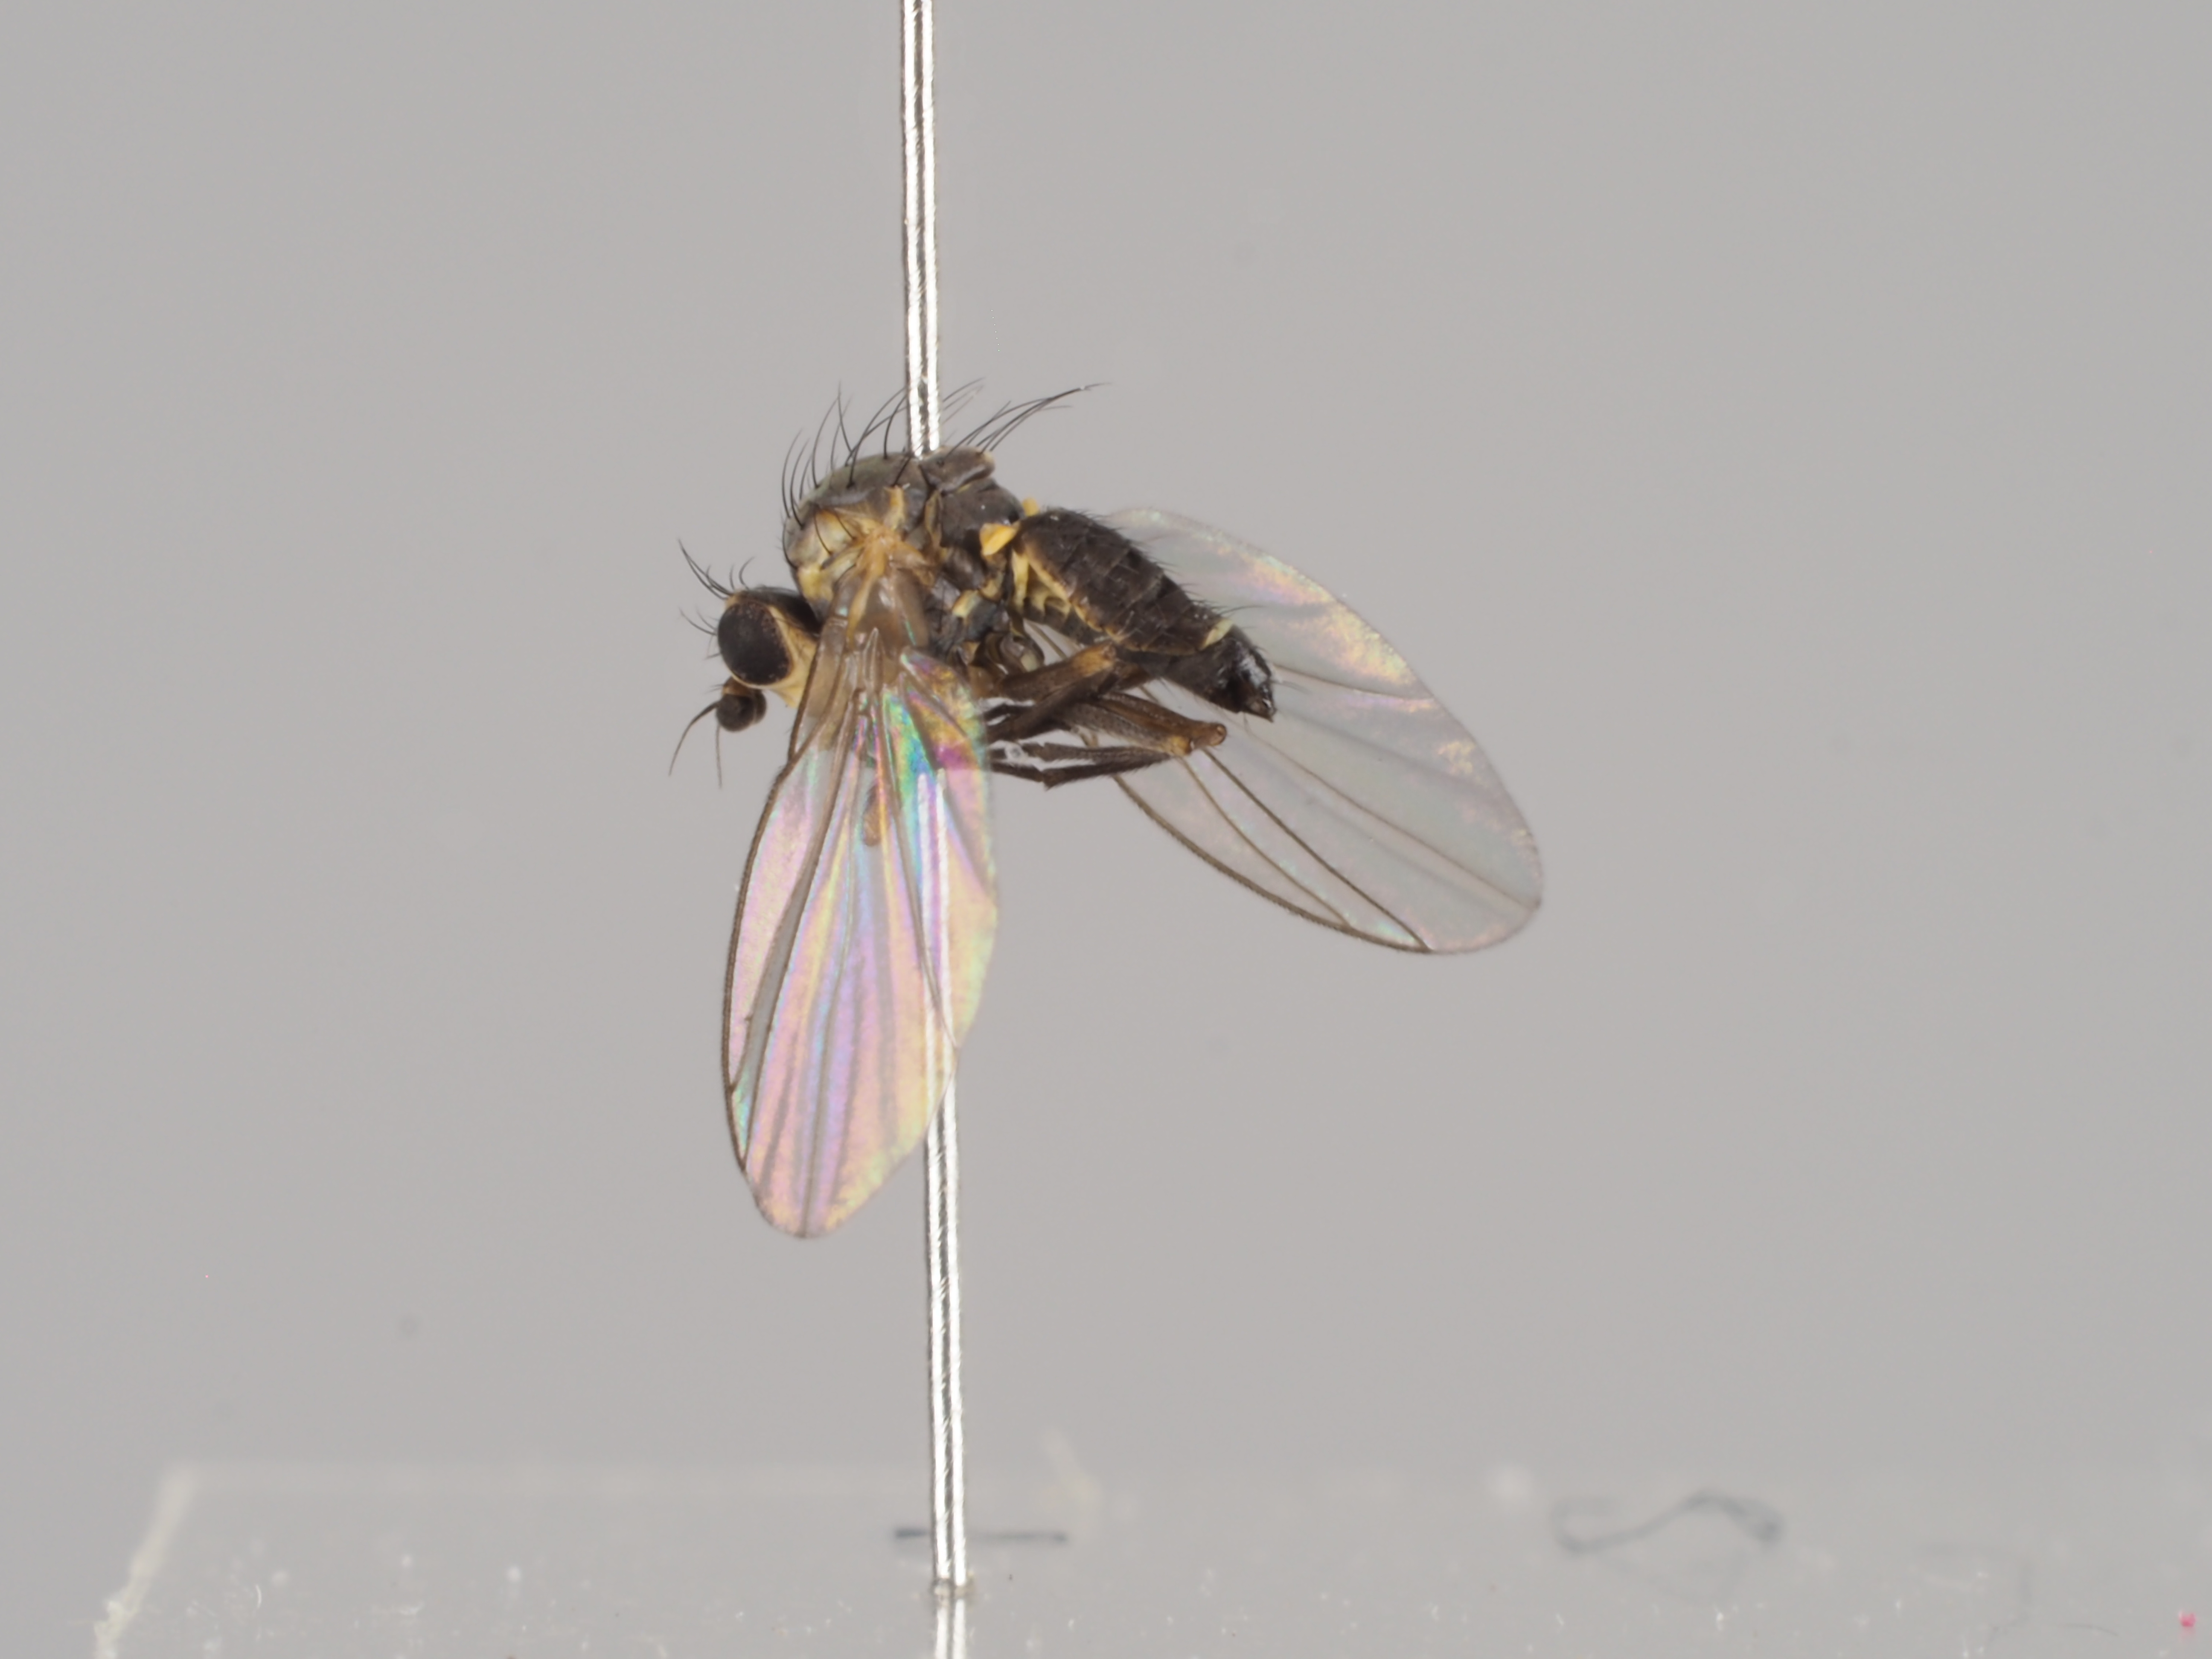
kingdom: Animalia
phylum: Arthropoda
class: Insecta
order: Diptera
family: Agromyzidae
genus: Phytomyza
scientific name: Phytomyza ranunculi
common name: Leaf-miner fly
